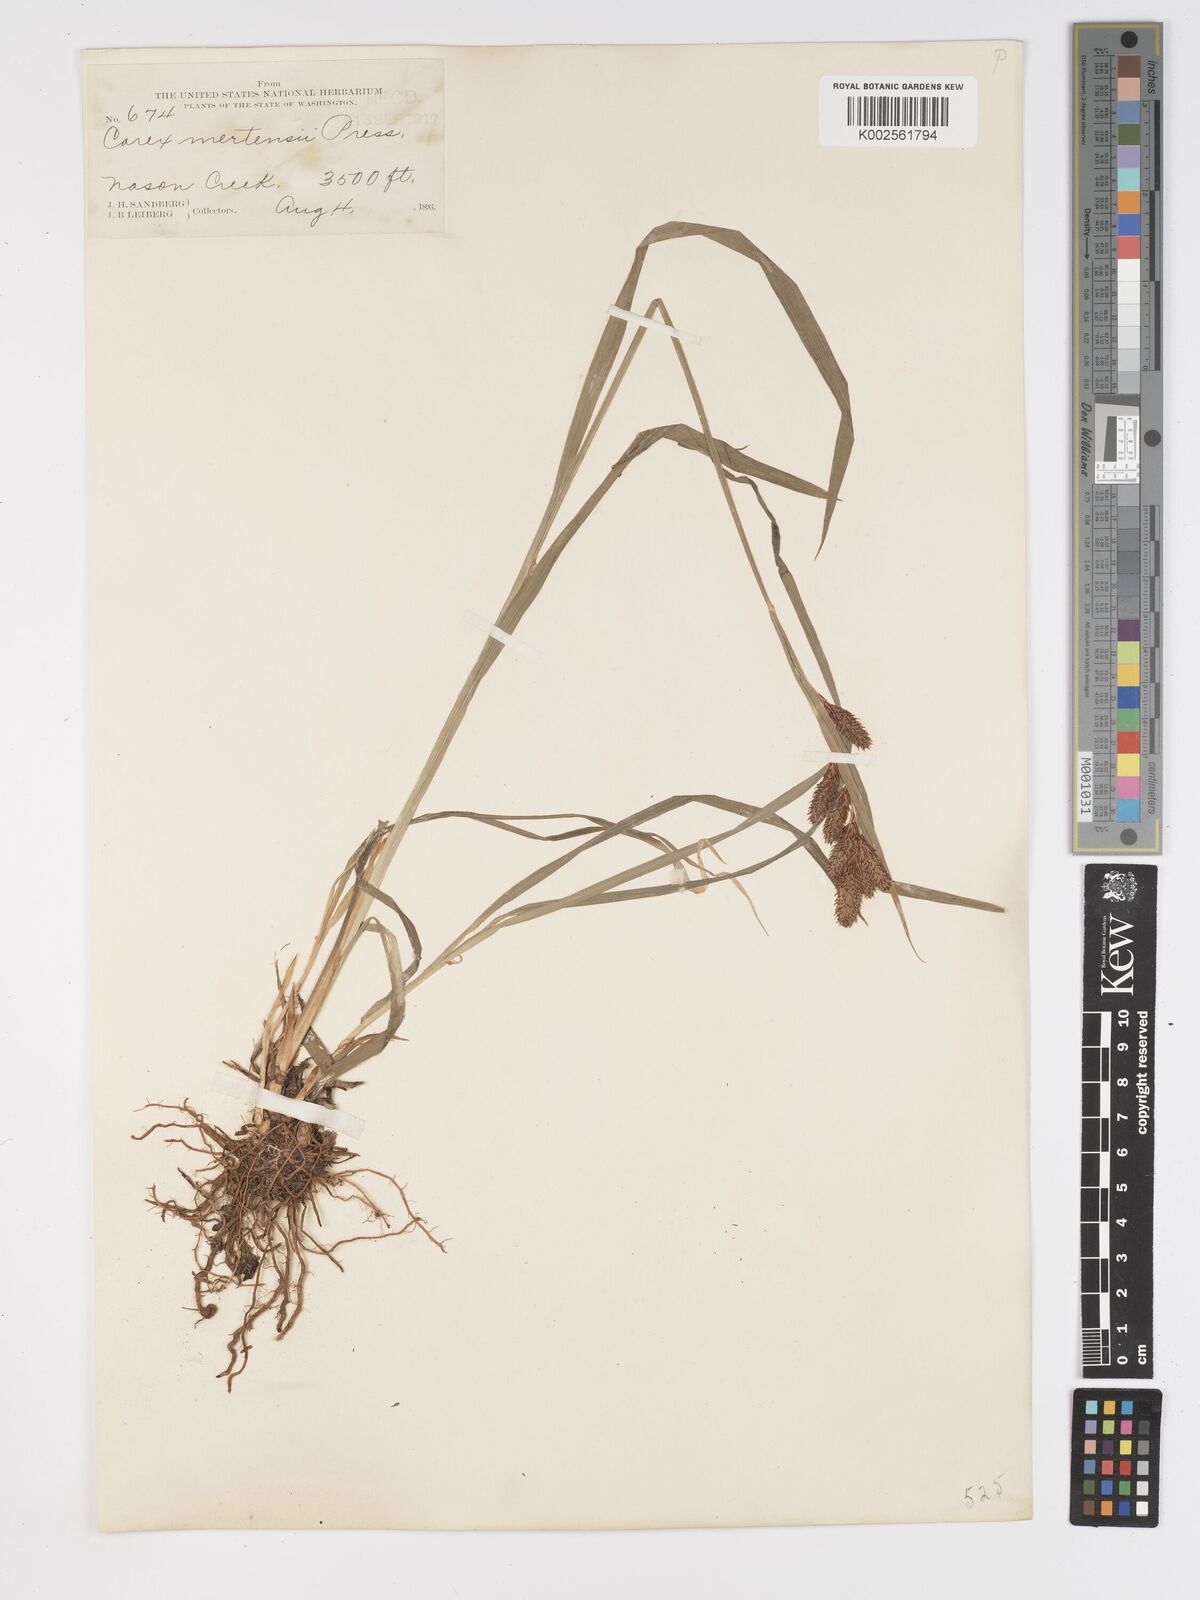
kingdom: Plantae
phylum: Tracheophyta
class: Liliopsida
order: Poales
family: Cyperaceae
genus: Carex
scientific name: Carex mertensii
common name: Mertens' sedge
